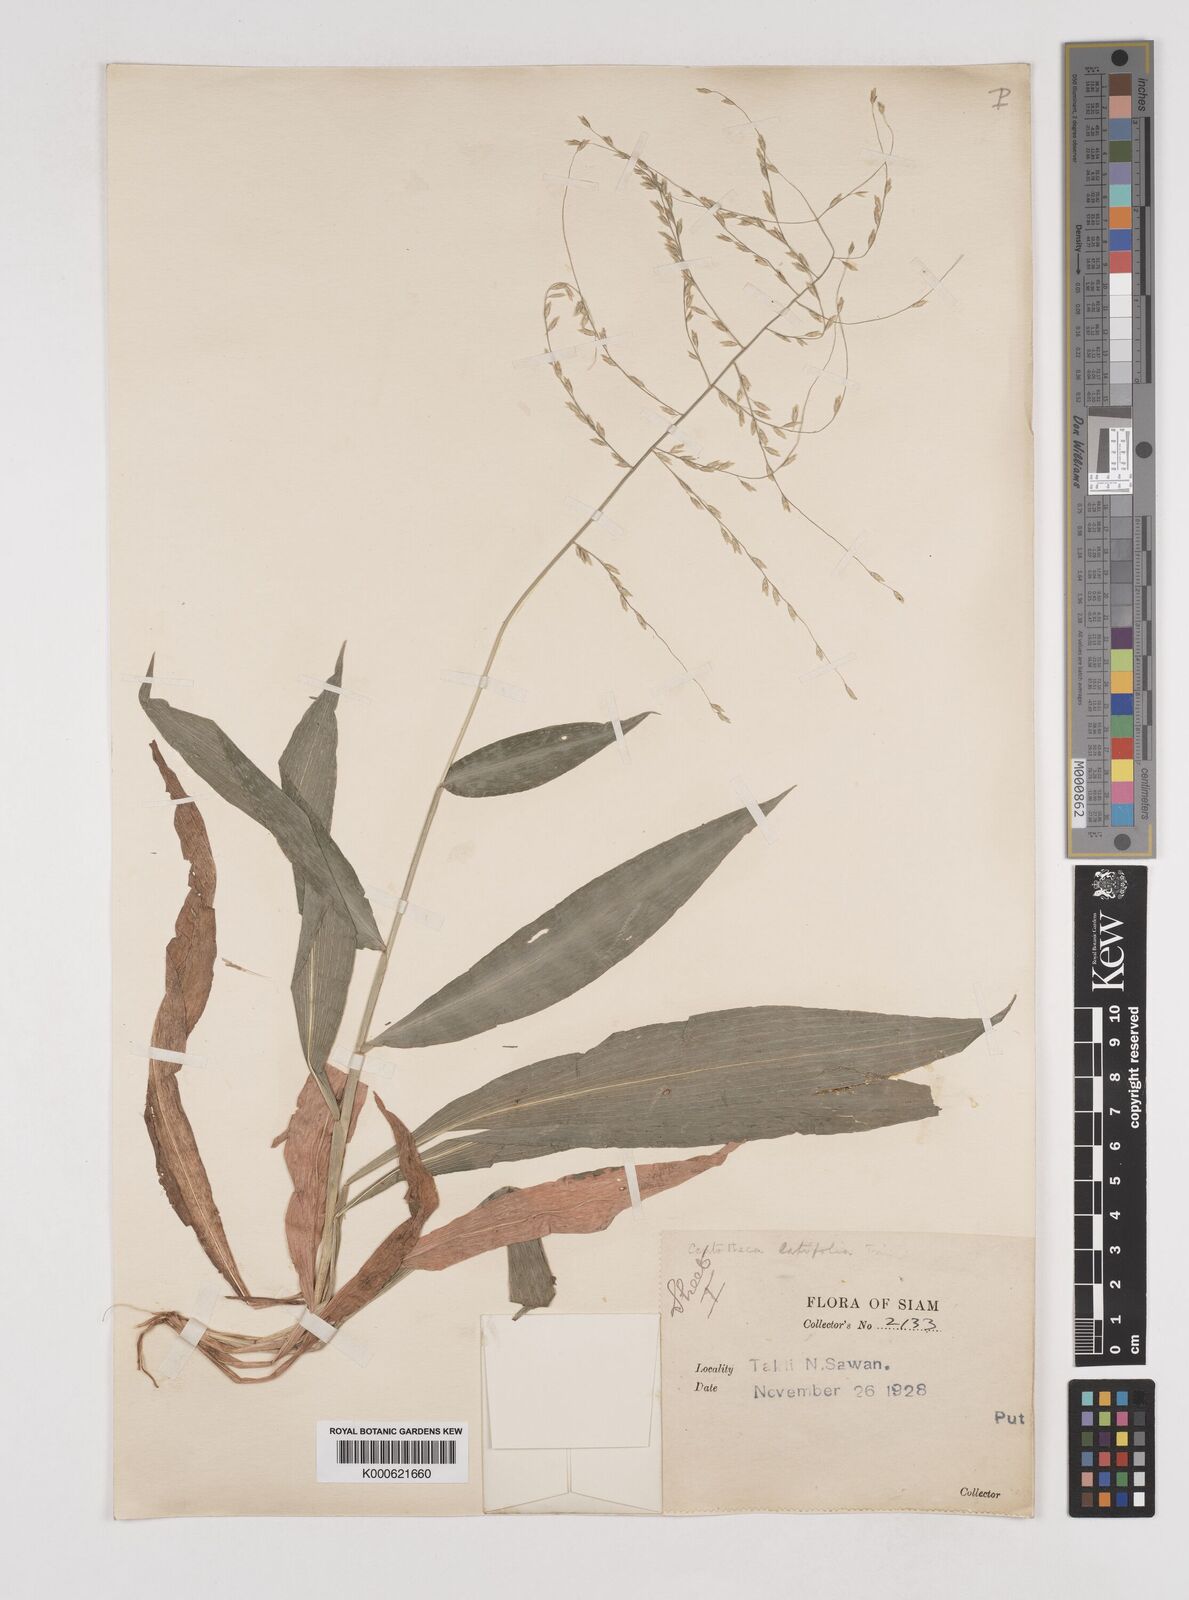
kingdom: Plantae
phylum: Tracheophyta
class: Liliopsida
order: Poales
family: Poaceae
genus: Centotheca
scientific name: Centotheca lappacea
